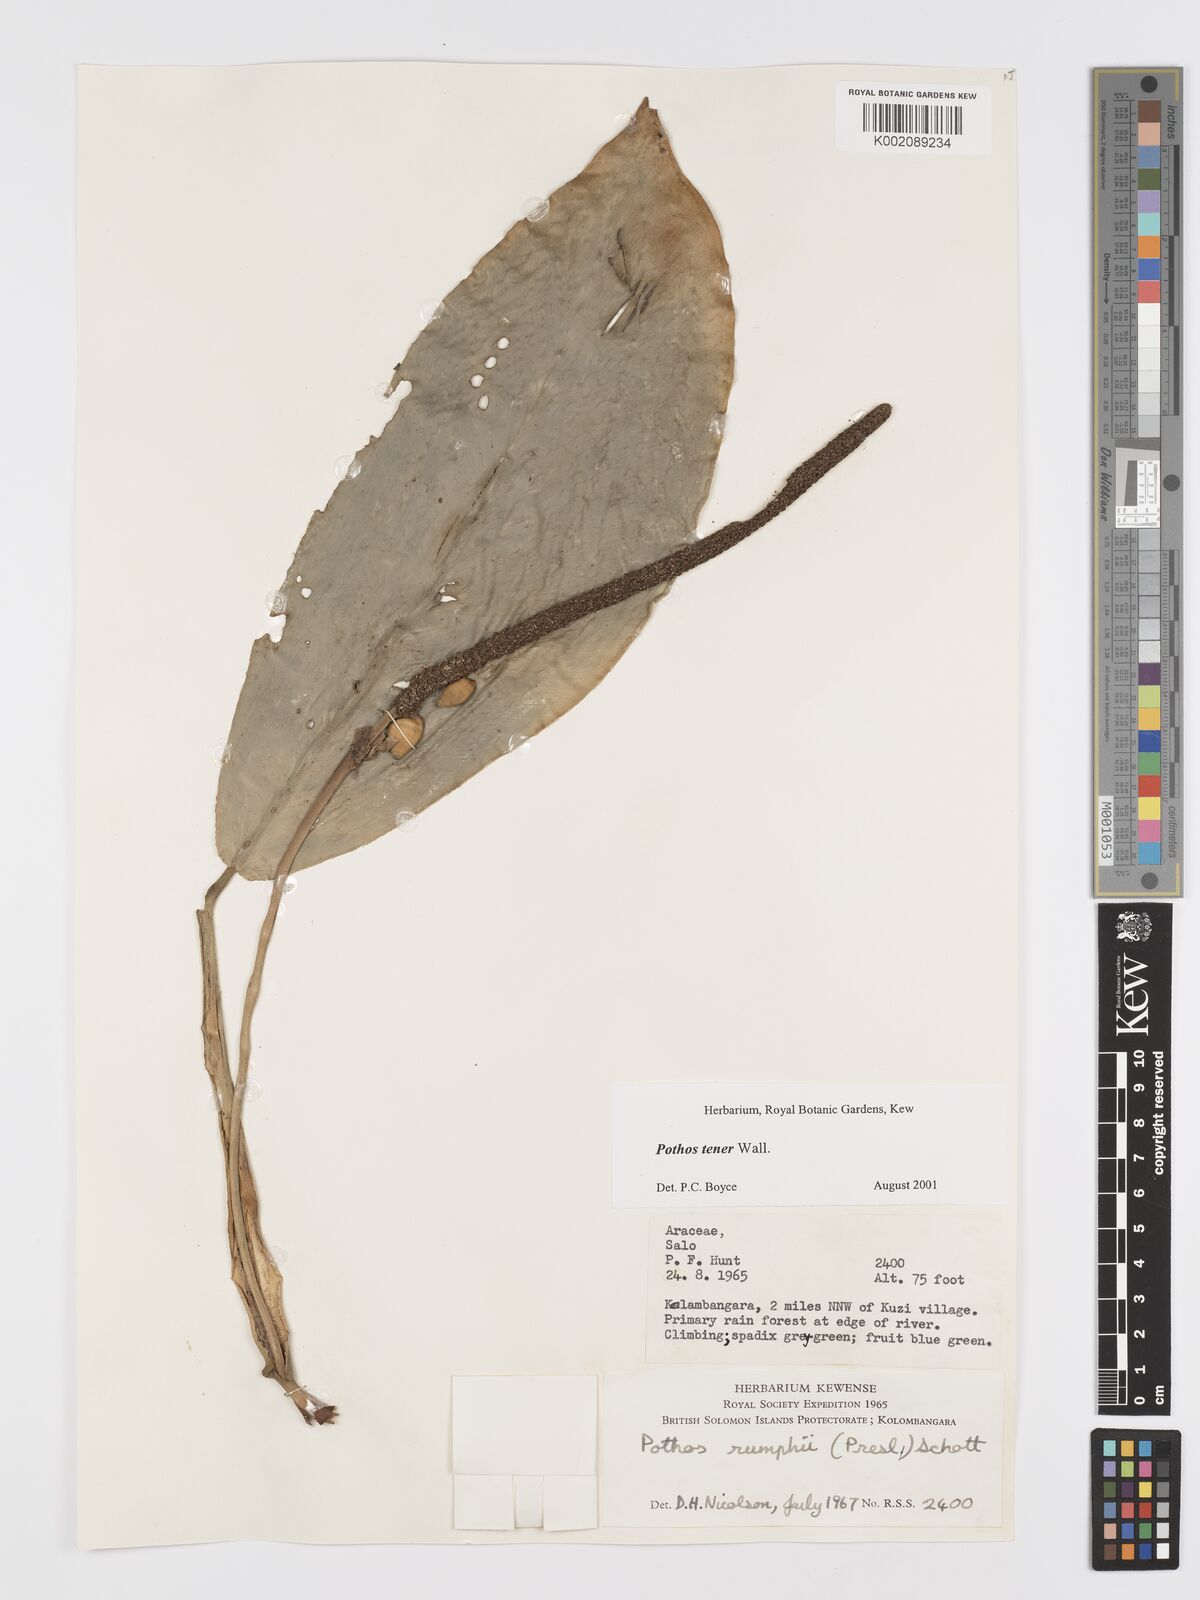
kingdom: Plantae
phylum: Tracheophyta
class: Liliopsida
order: Alismatales
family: Araceae
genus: Pothos
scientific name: Pothos tener
